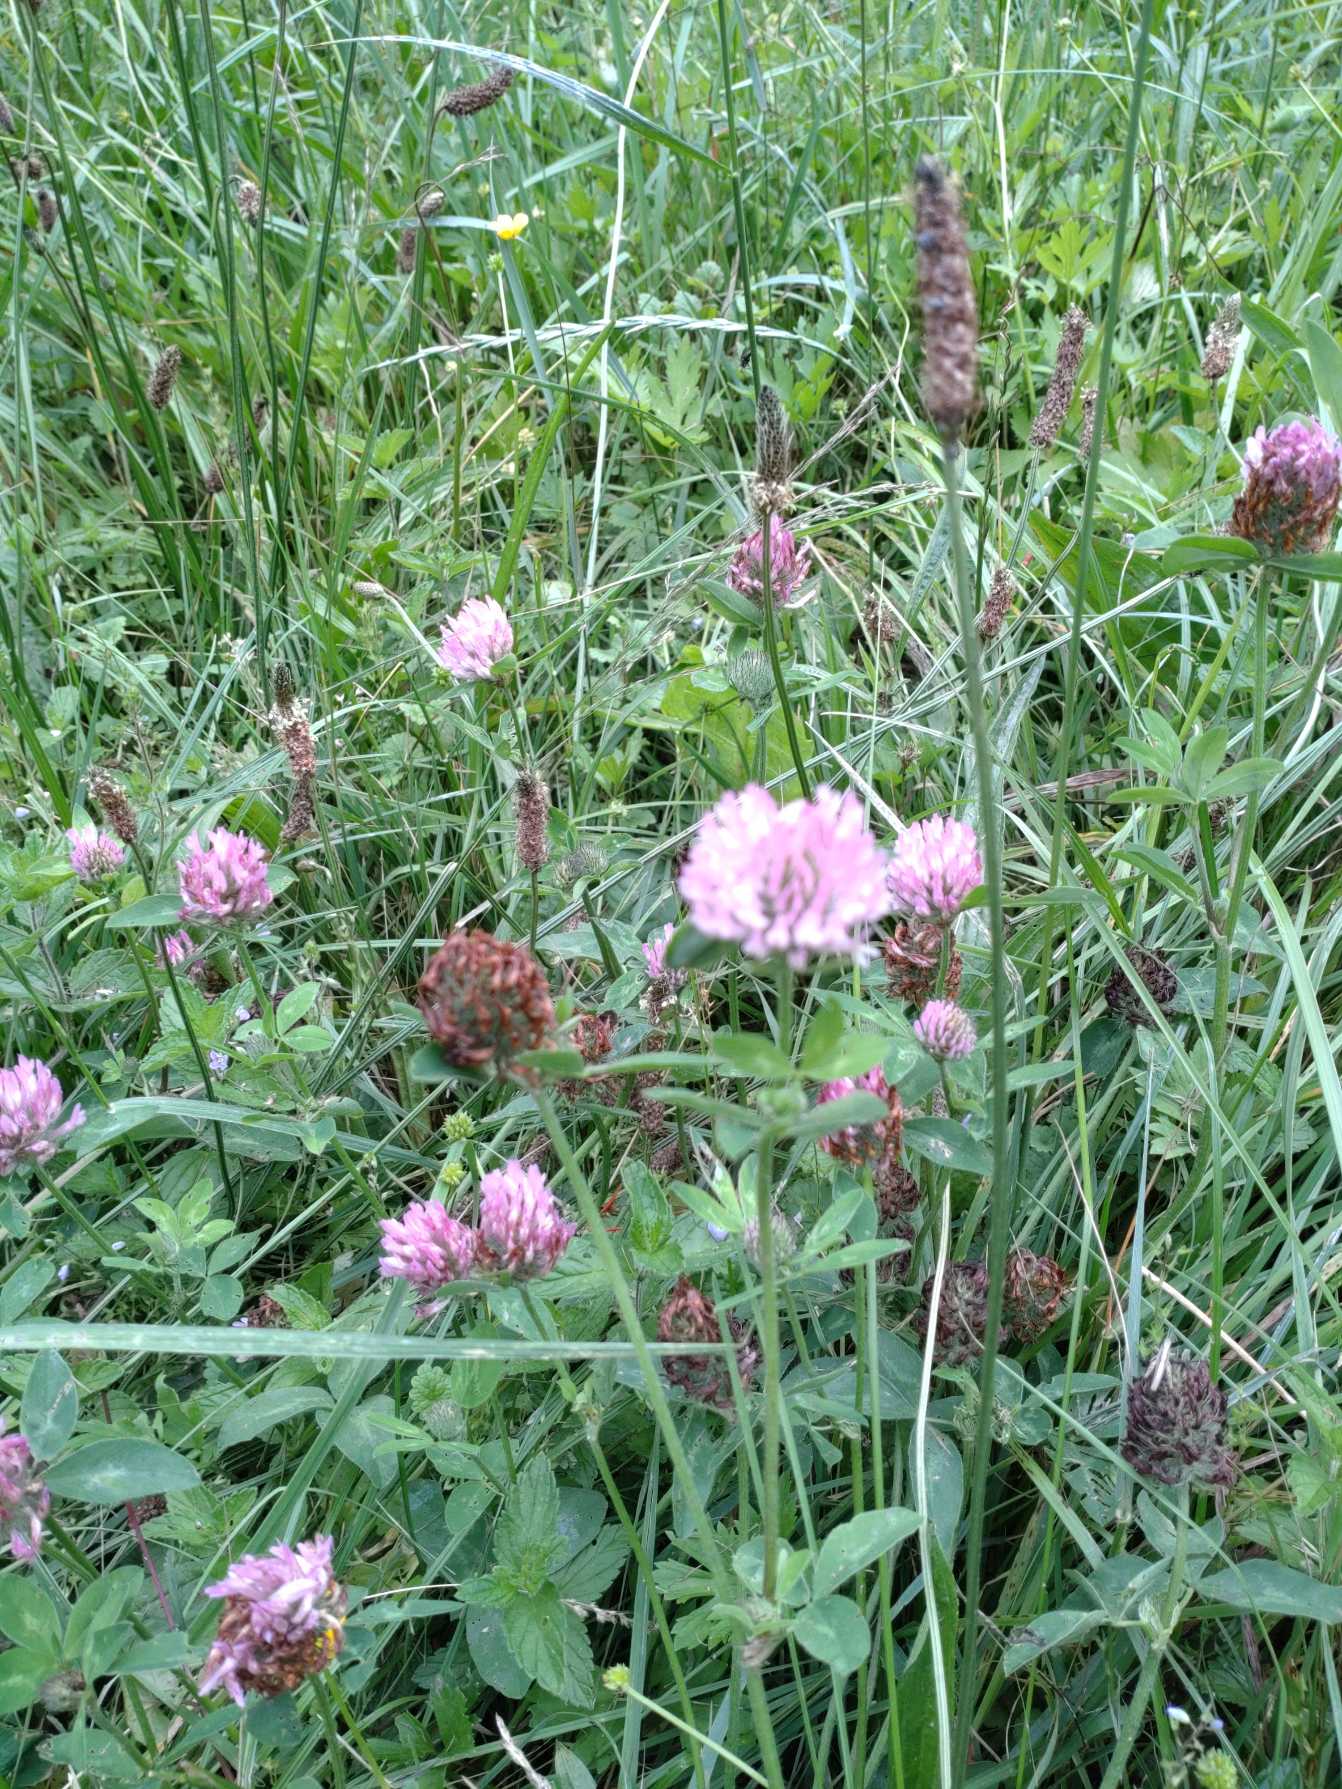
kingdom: Plantae
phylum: Tracheophyta
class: Magnoliopsida
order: Fabales
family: Fabaceae
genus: Trifolium
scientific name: Trifolium pratense
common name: Rød-kløver
